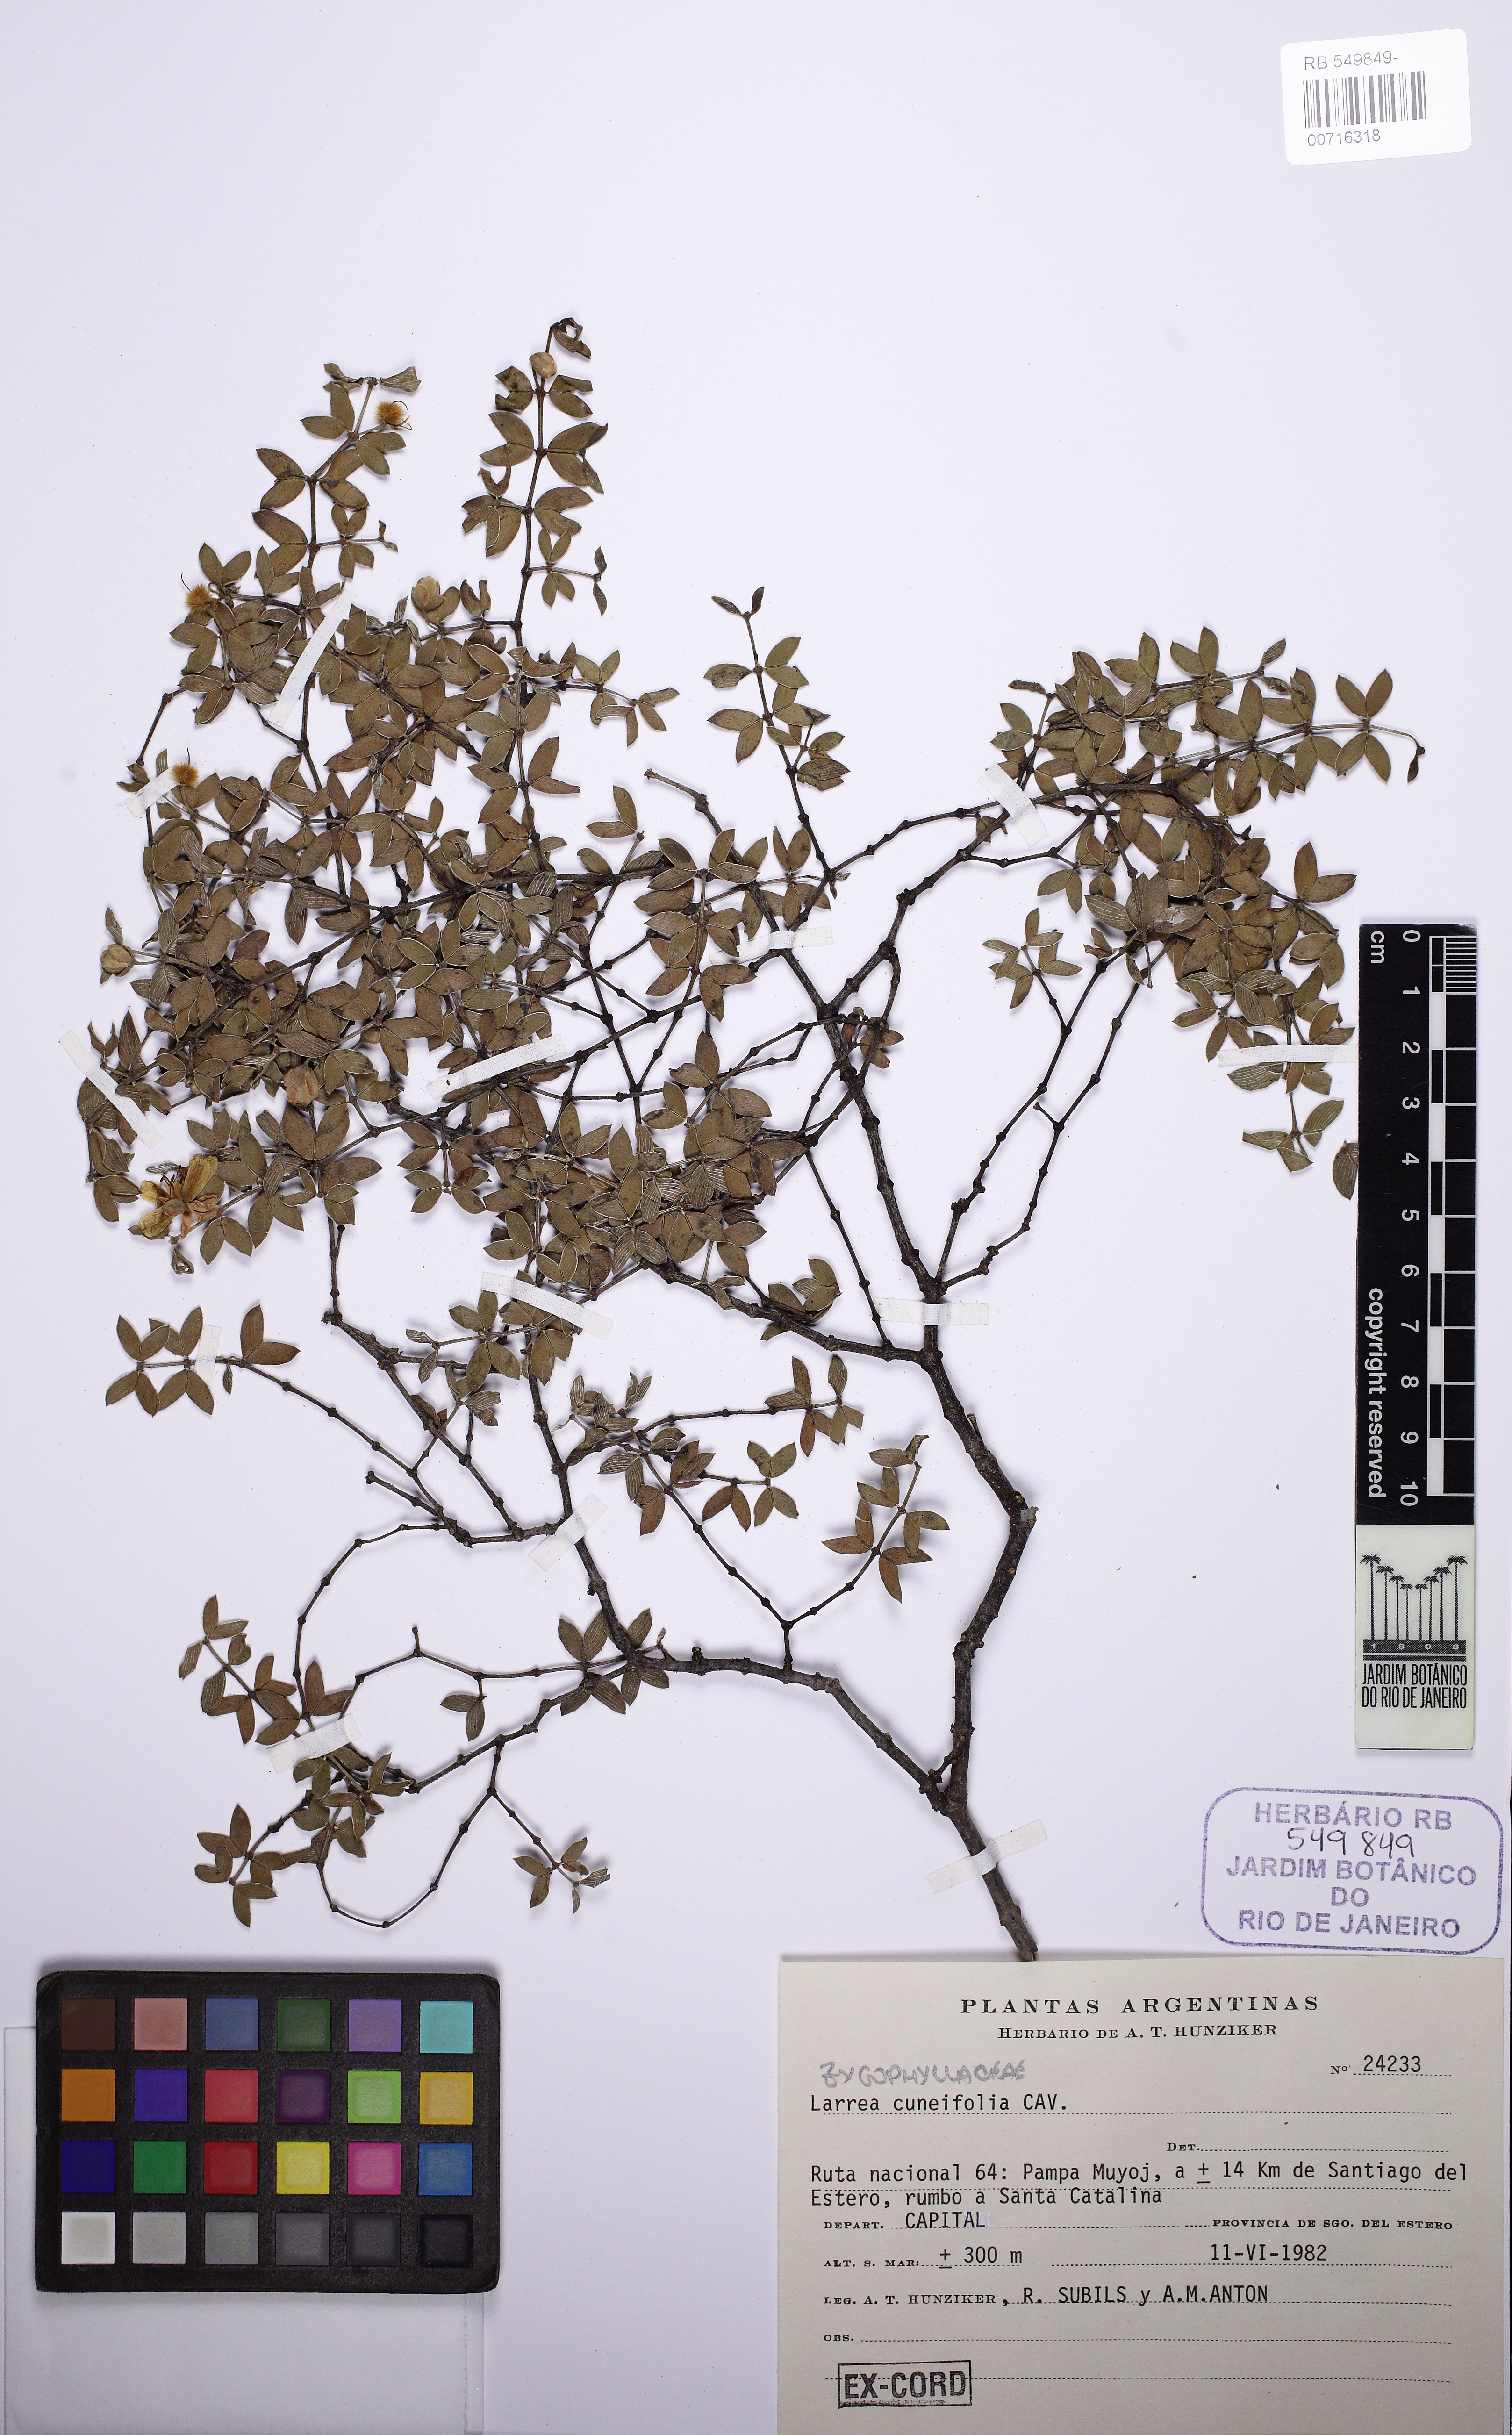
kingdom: Plantae
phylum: Tracheophyta
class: Magnoliopsida
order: Zygophyllales
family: Zygophyllaceae
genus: Larrea
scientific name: Larrea cuneifolia
